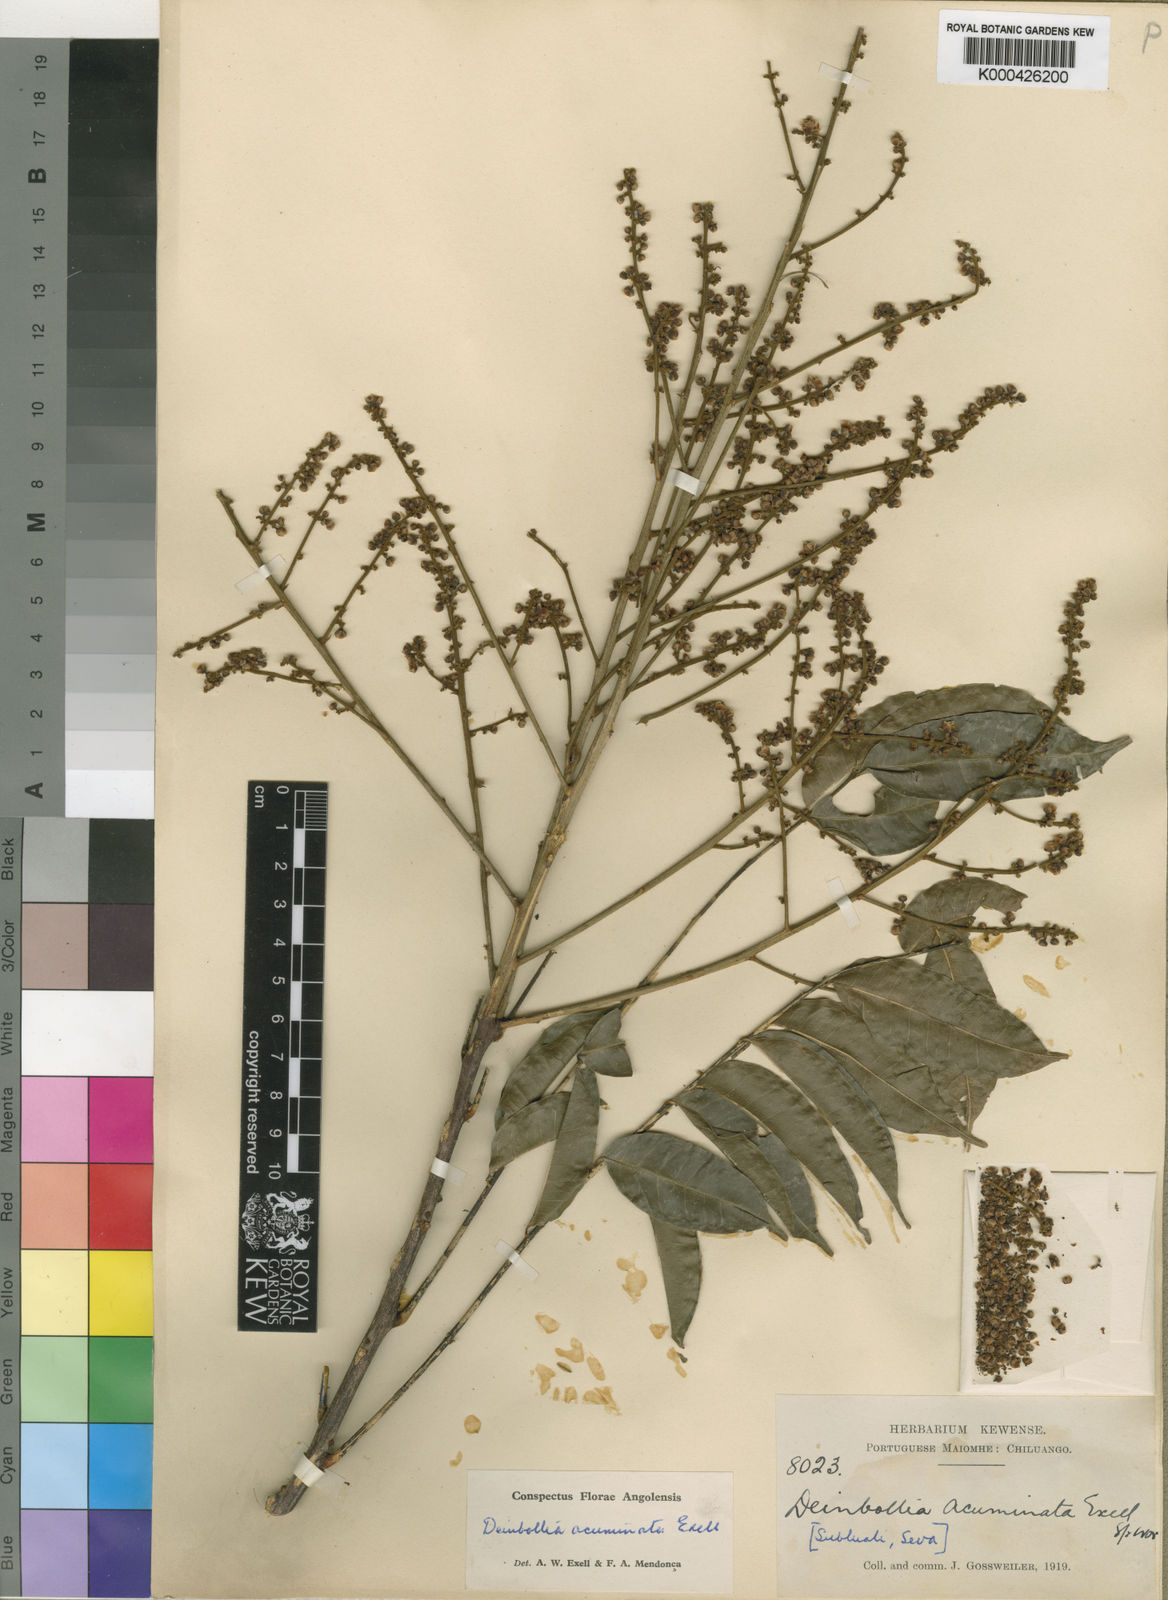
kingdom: Plantae
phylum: Tracheophyta
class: Magnoliopsida
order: Sapindales
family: Sapindaceae
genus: Deinbollia
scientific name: Deinbollia acuminata
